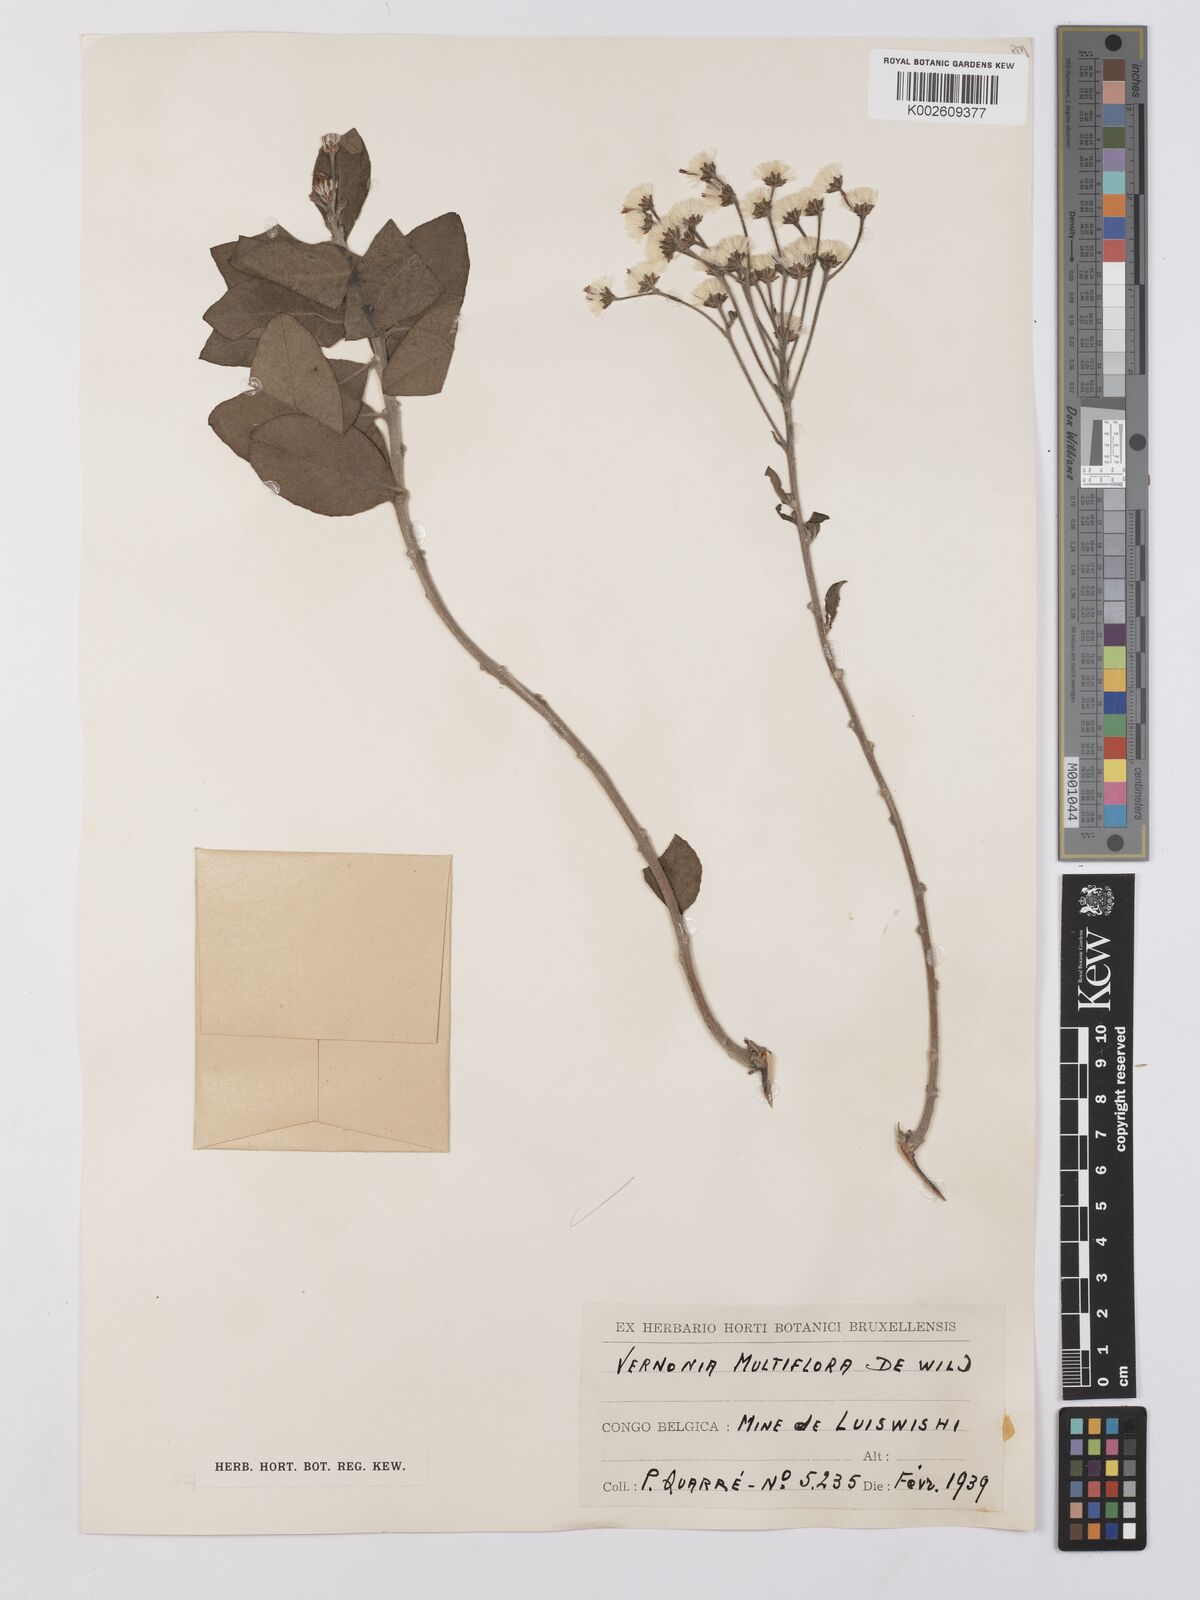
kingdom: Plantae
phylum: Tracheophyta
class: Magnoliopsida
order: Asterales
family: Asteraceae
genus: Vernonia
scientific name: Vernonia suprafastigiata
